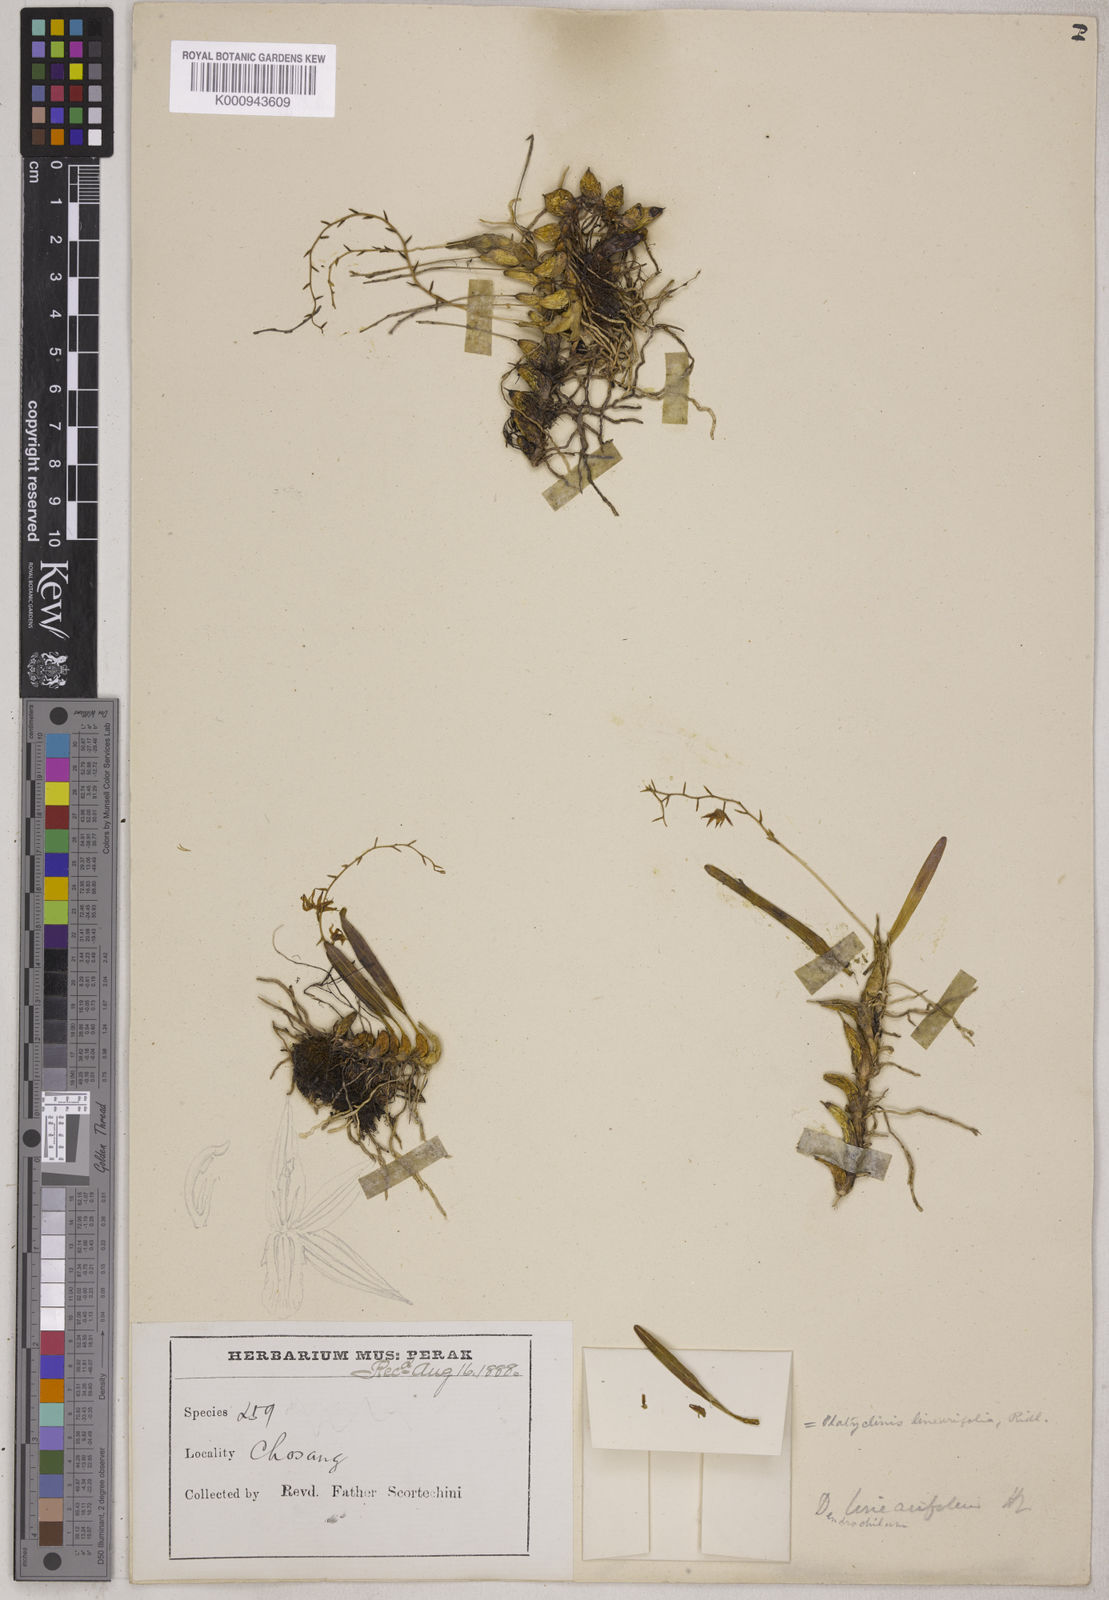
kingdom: Plantae
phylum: Tracheophyta
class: Liliopsida
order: Asparagales
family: Orchidaceae
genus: Coelogyne
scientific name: Coelogyne linearifolia
